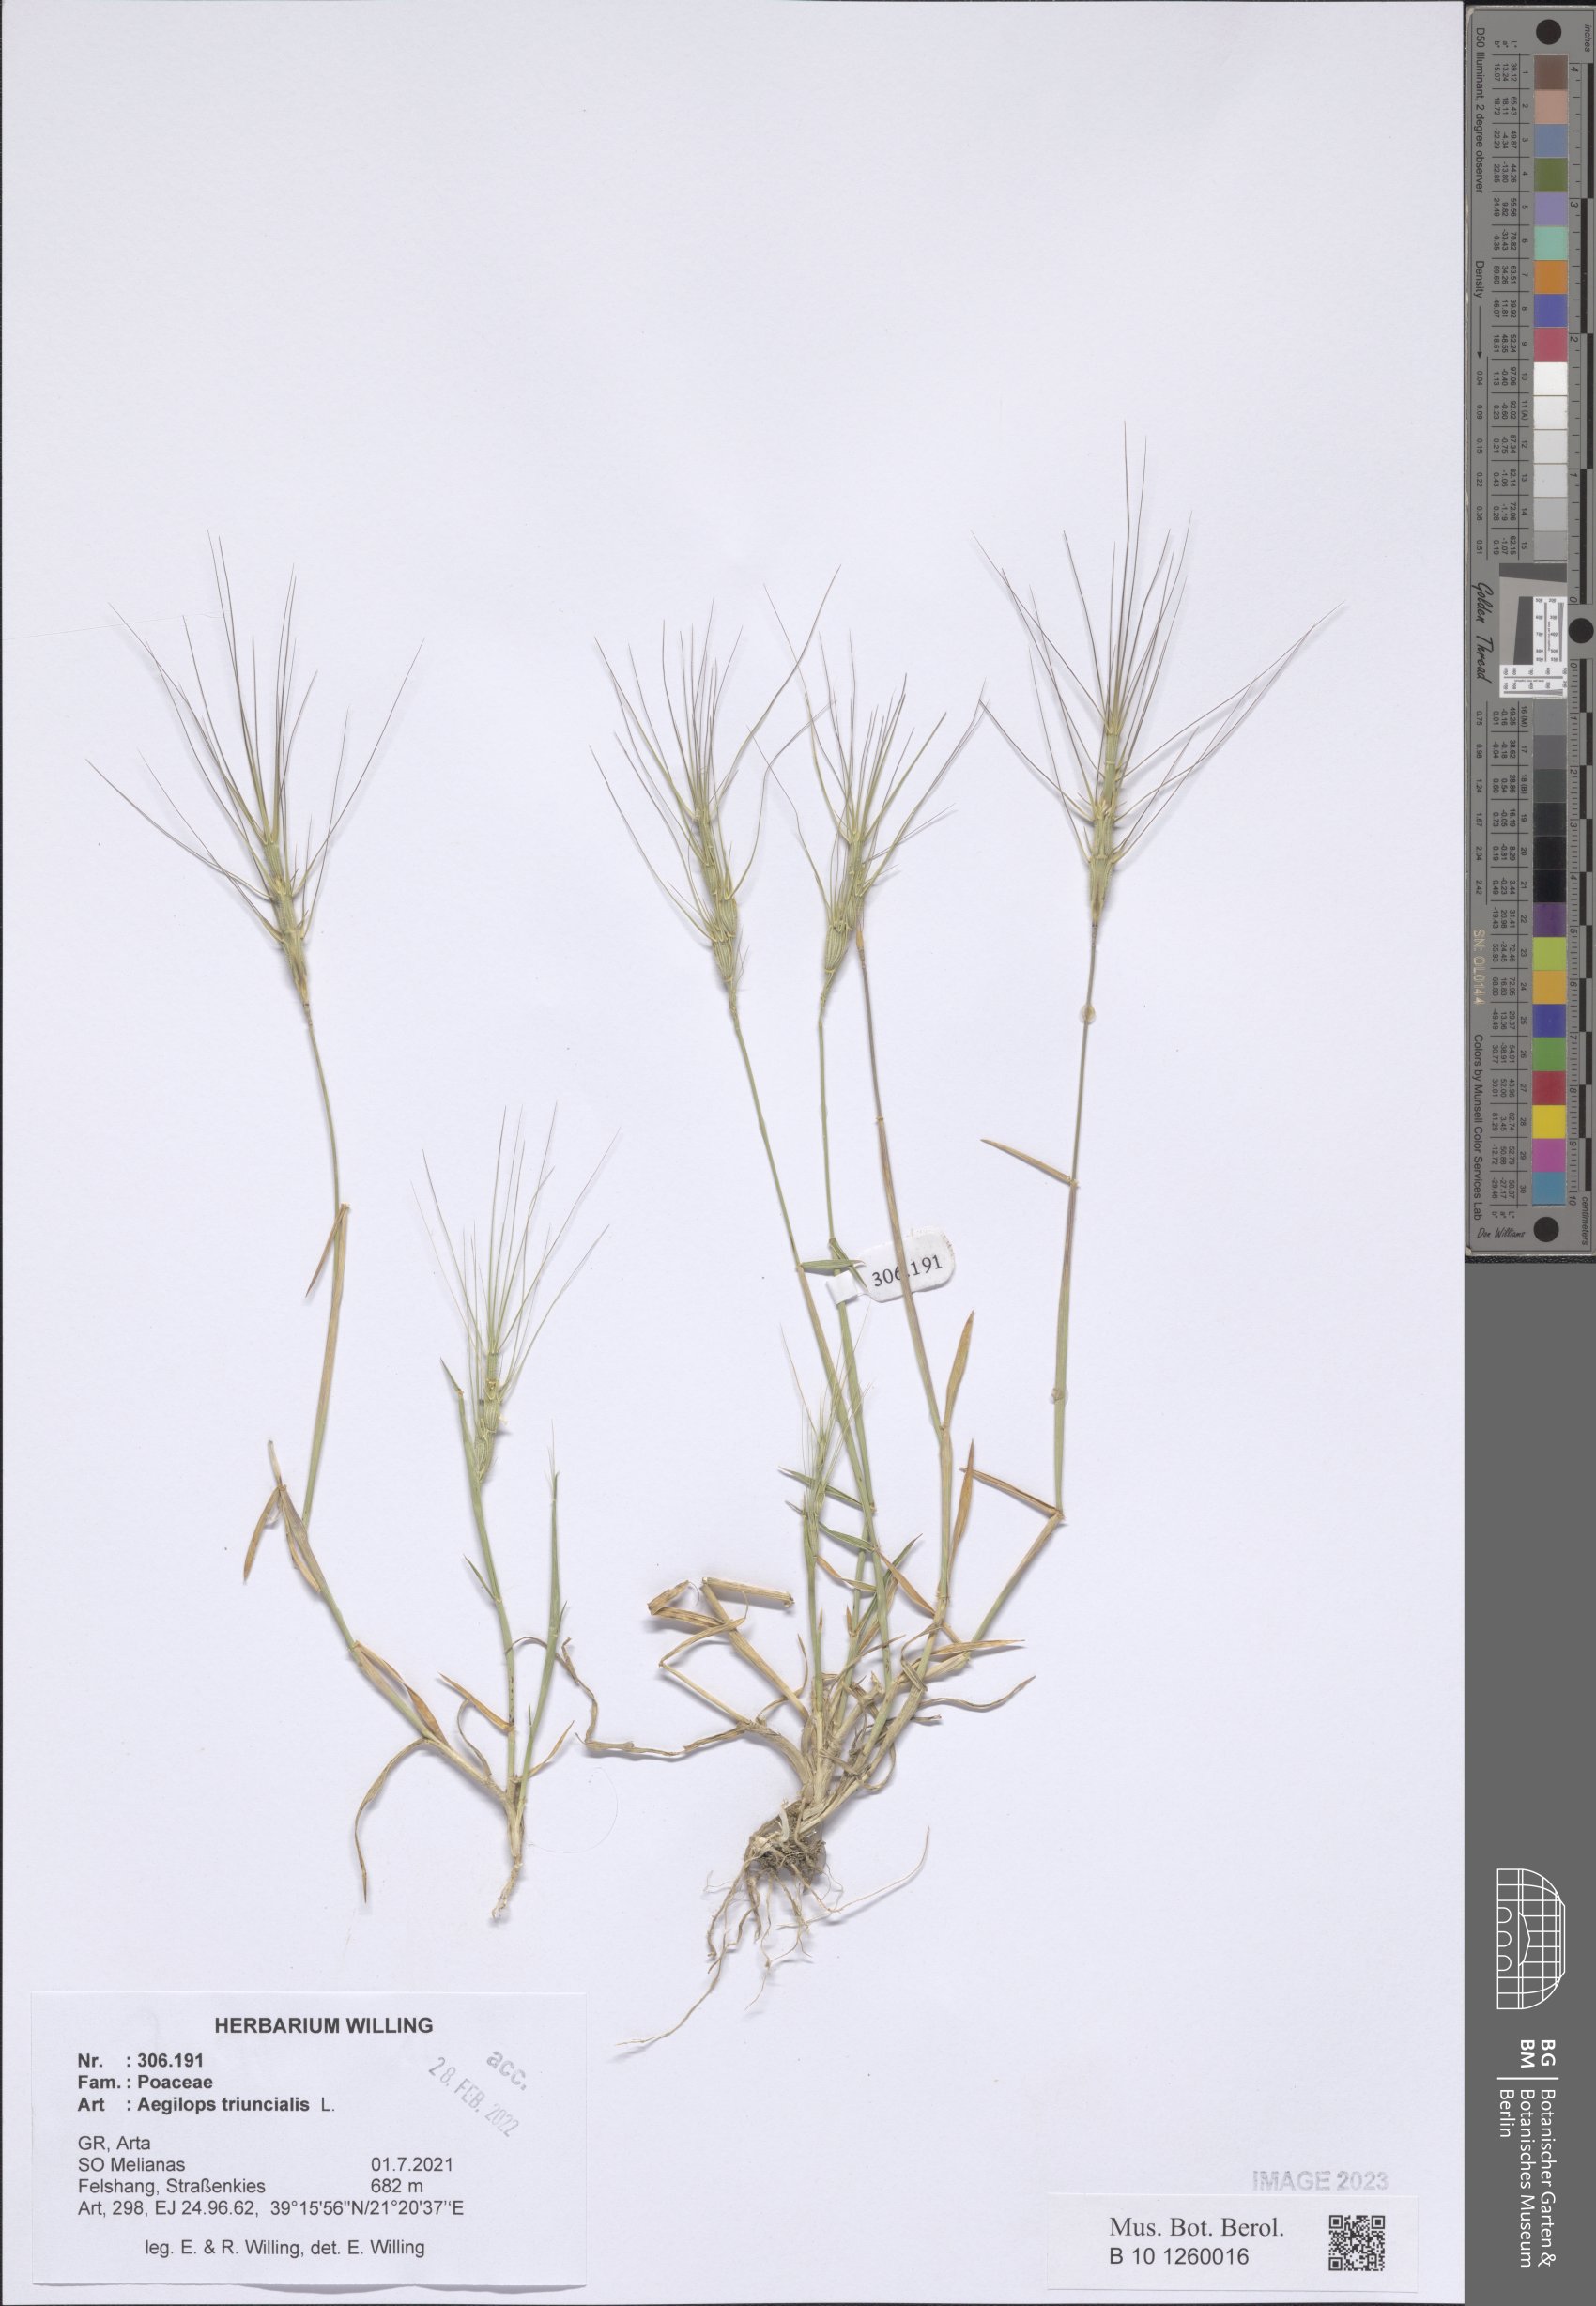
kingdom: Plantae
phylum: Tracheophyta
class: Liliopsida
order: Poales
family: Poaceae
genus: Aegilops
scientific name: Aegilops triuncialis
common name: Barb goat grass
